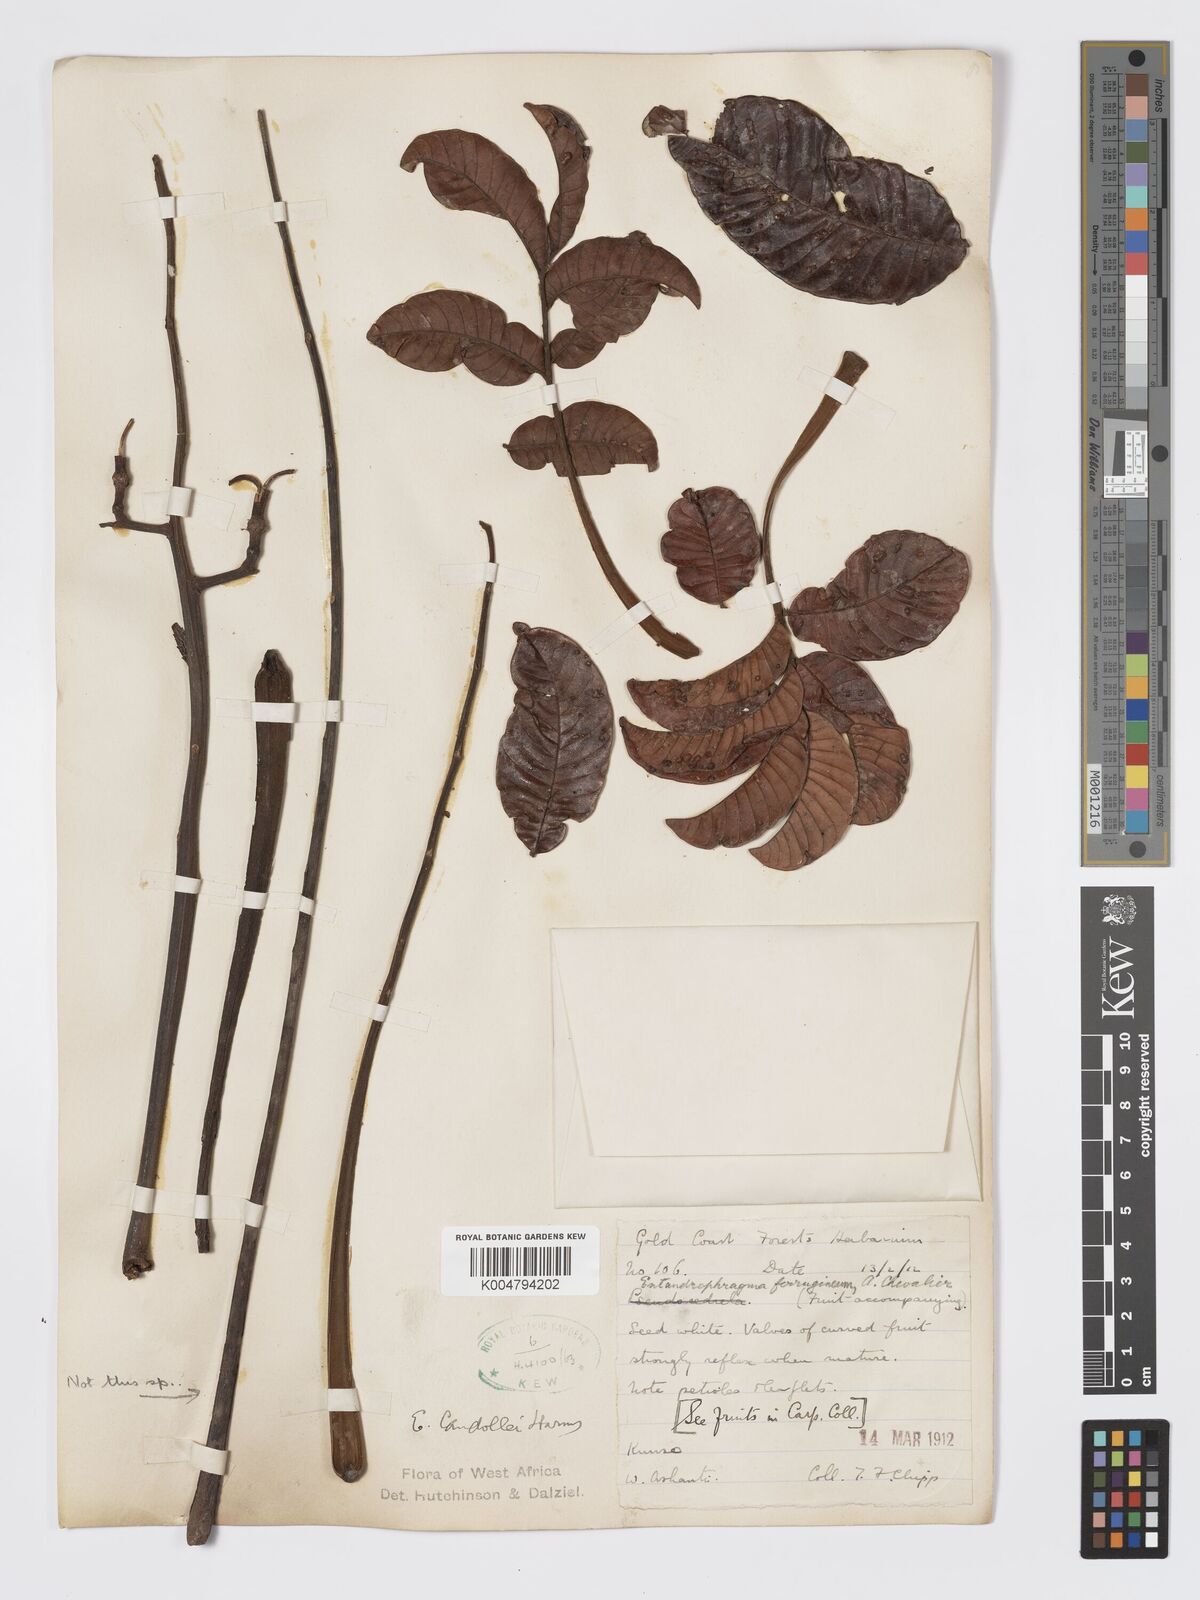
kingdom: Plantae
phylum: Tracheophyta
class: Magnoliopsida
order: Sapindales
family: Meliaceae
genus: Entandrophragma
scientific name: Entandrophragma candollei
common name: Cedar kokoti
